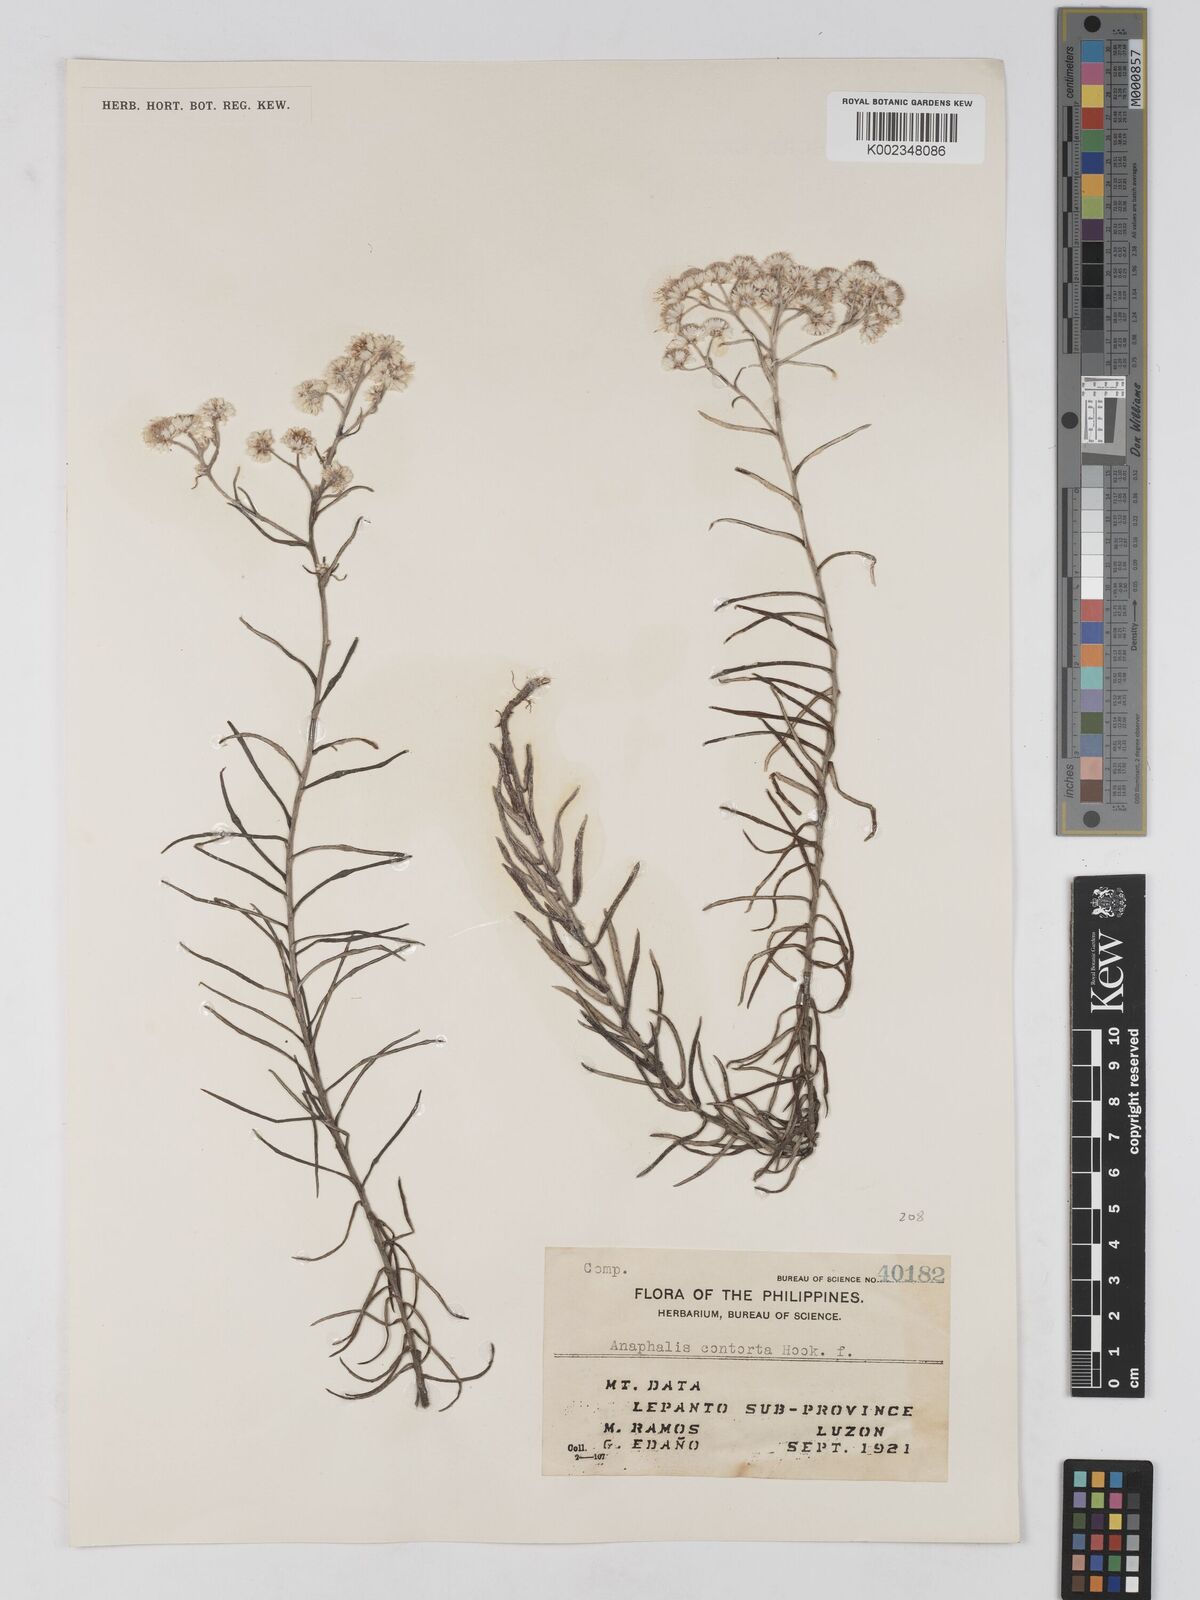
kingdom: Plantae
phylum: Tracheophyta
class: Magnoliopsida
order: Asterales
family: Asteraceae
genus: Anaphalis
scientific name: Anaphalis contorta
